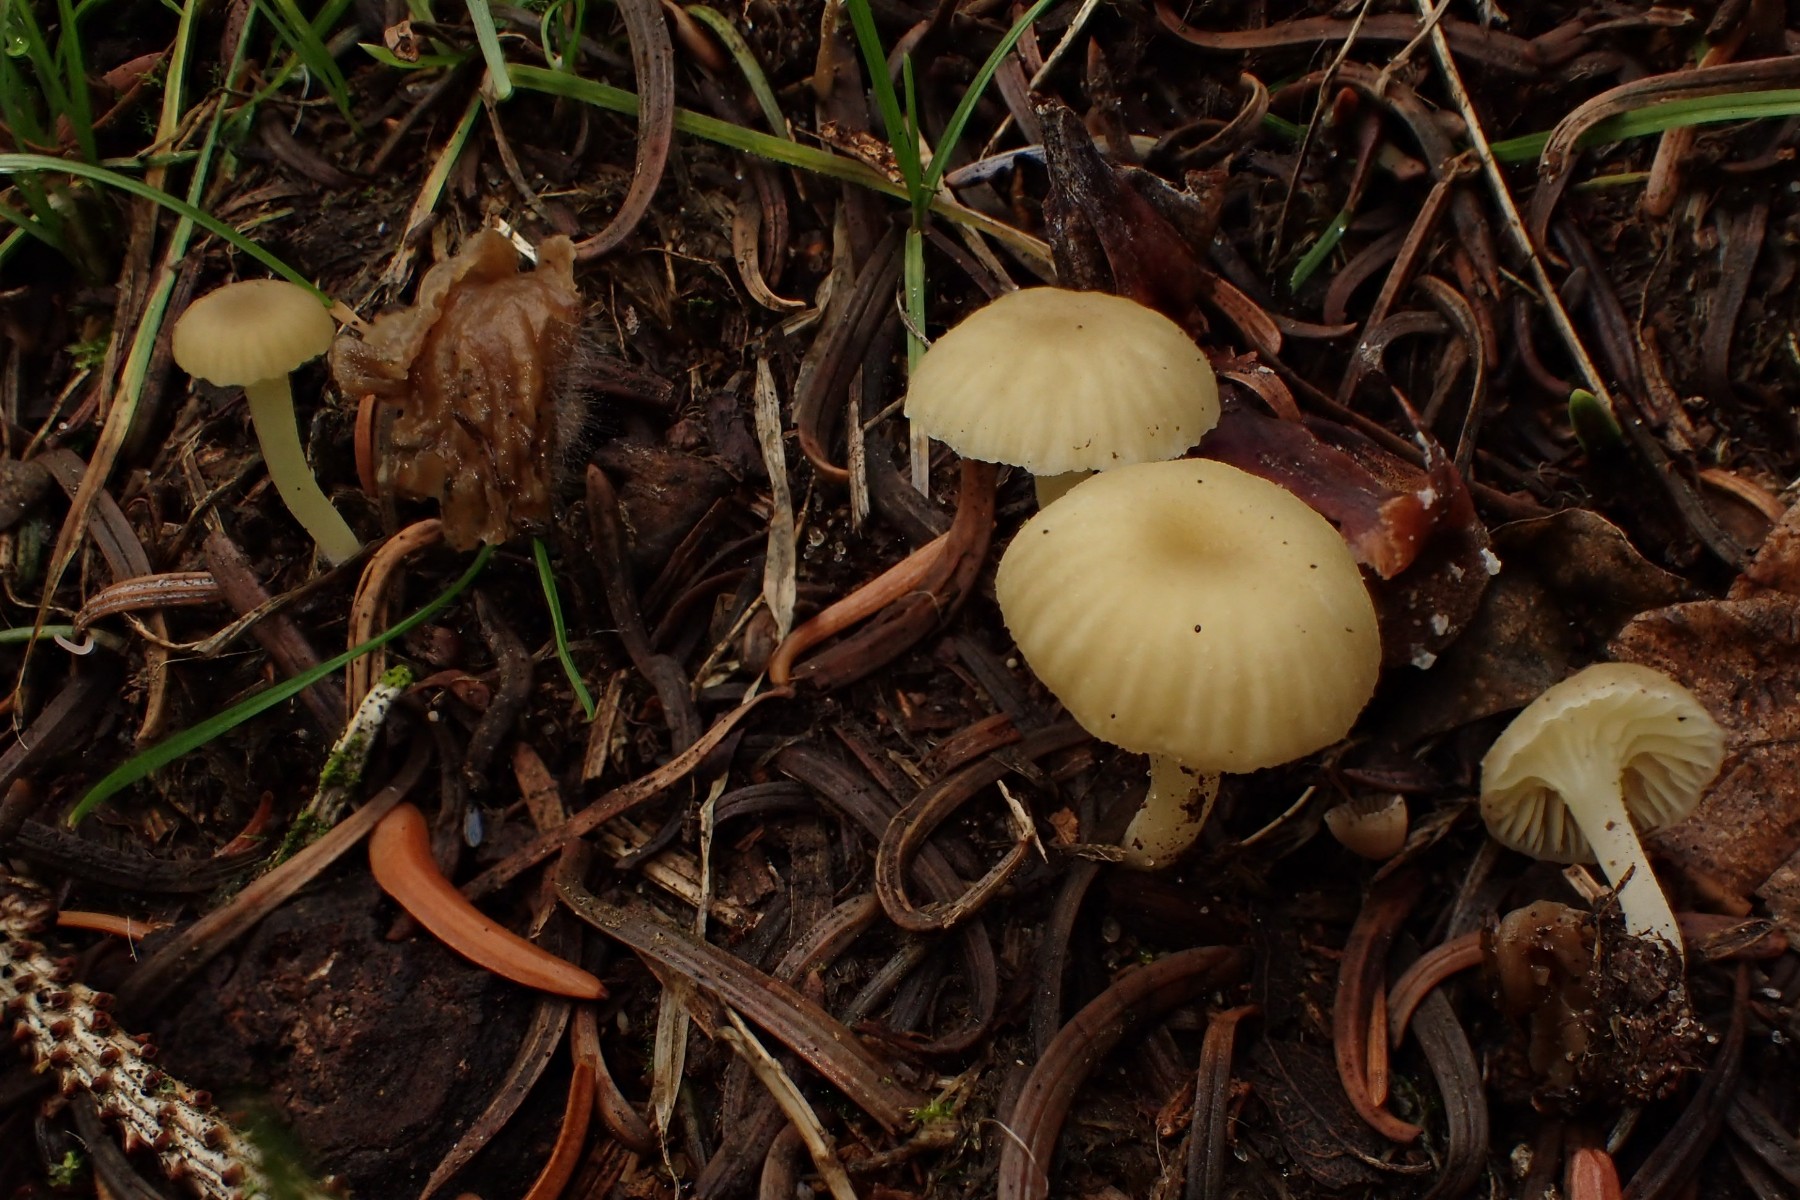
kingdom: Fungi
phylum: Basidiomycota
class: Agaricomycetes
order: Agaricales
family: Hygrophoraceae
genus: Chrysomphalina
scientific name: Chrysomphalina grossula
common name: stød-gyldenblad
